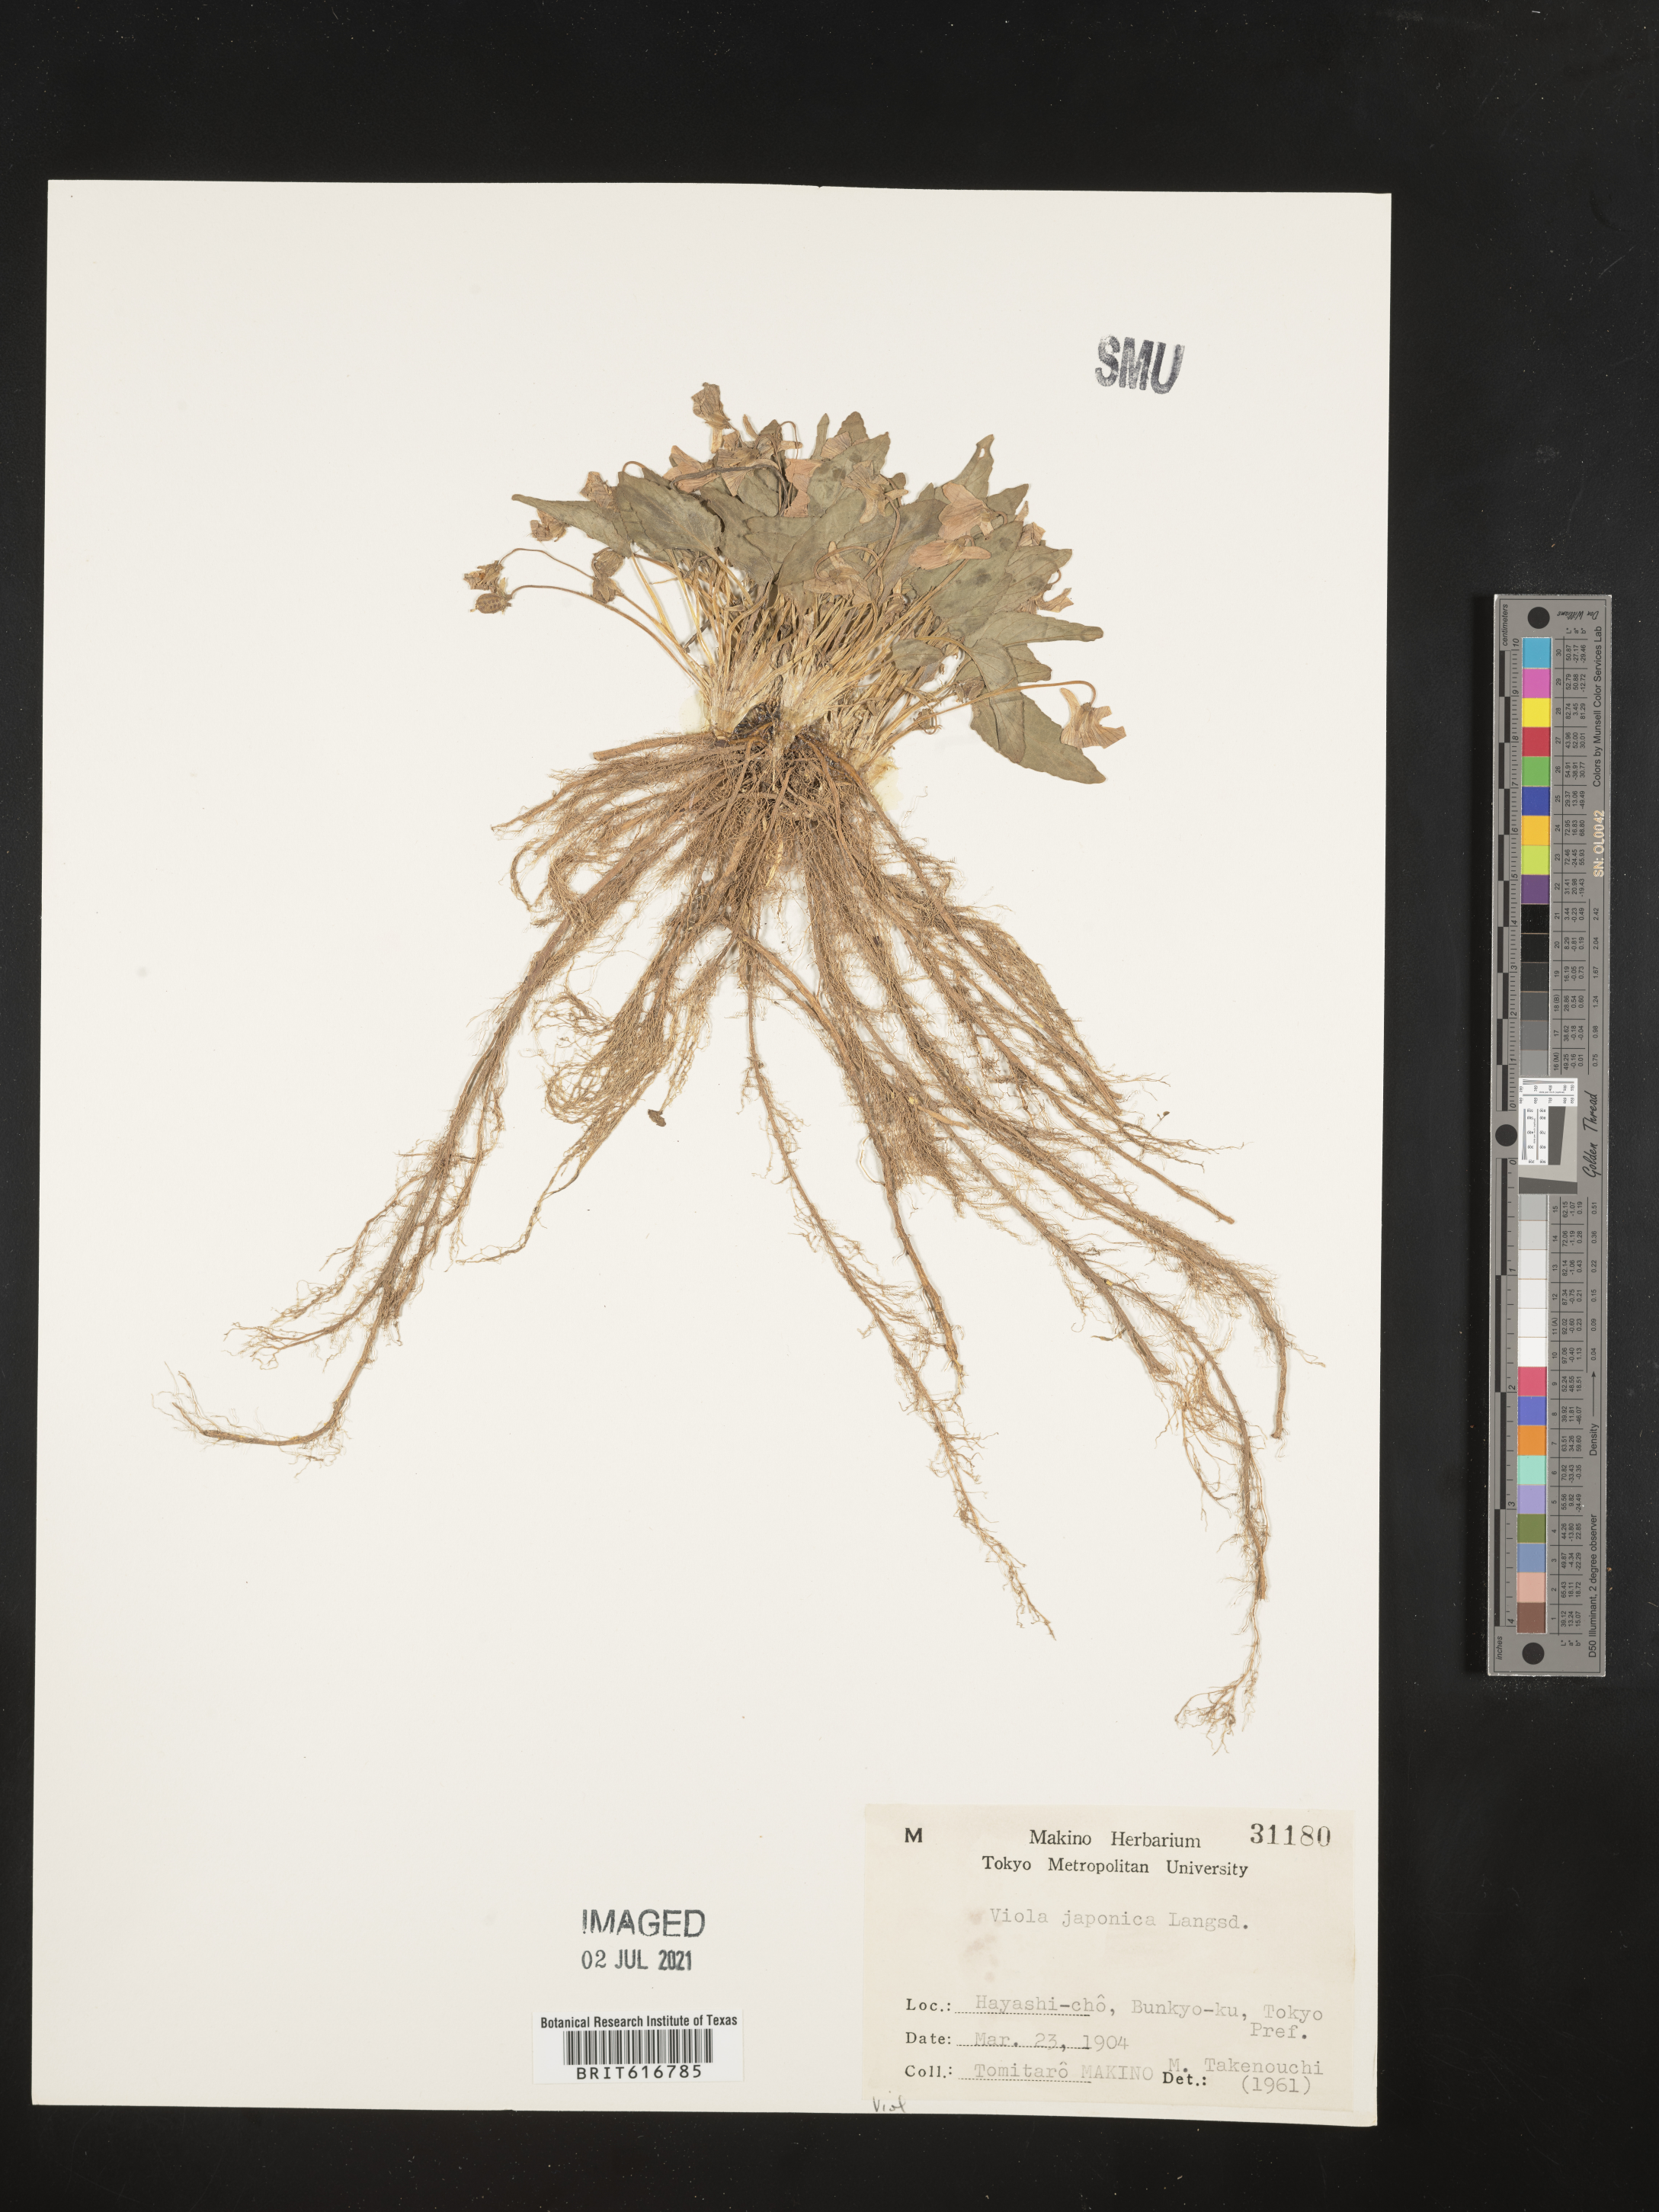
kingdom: Plantae
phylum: Tracheophyta
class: Magnoliopsida
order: Malpighiales
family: Violaceae
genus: Viola
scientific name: Viola japonica
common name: Japanese violet
